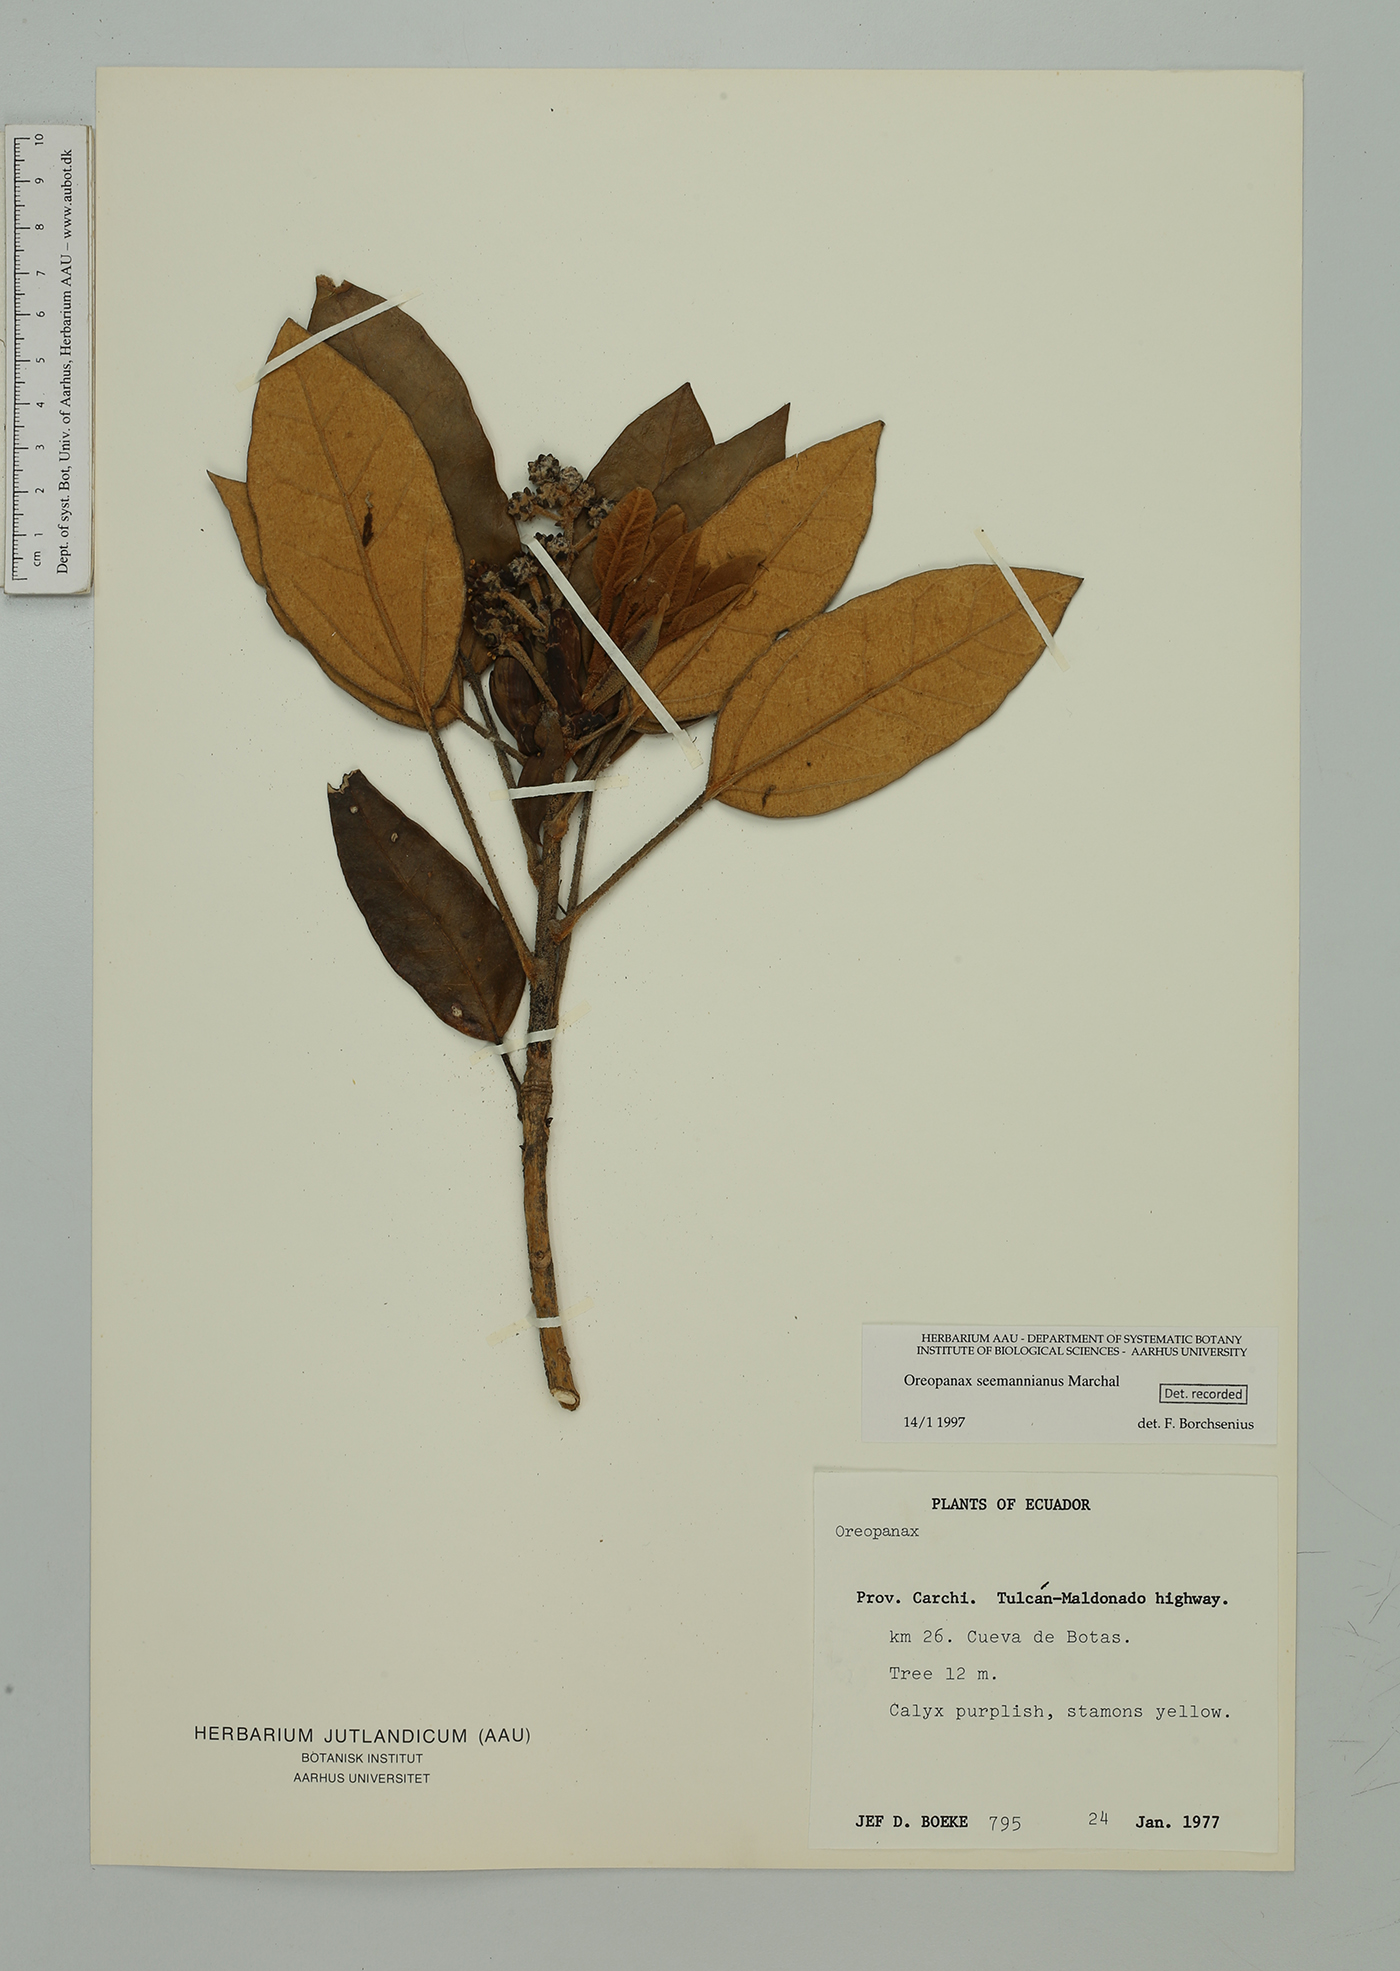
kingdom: Plantae
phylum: Tracheophyta
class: Magnoliopsida
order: Apiales
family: Araliaceae
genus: Oreopanax
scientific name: Oreopanax seemannianus
